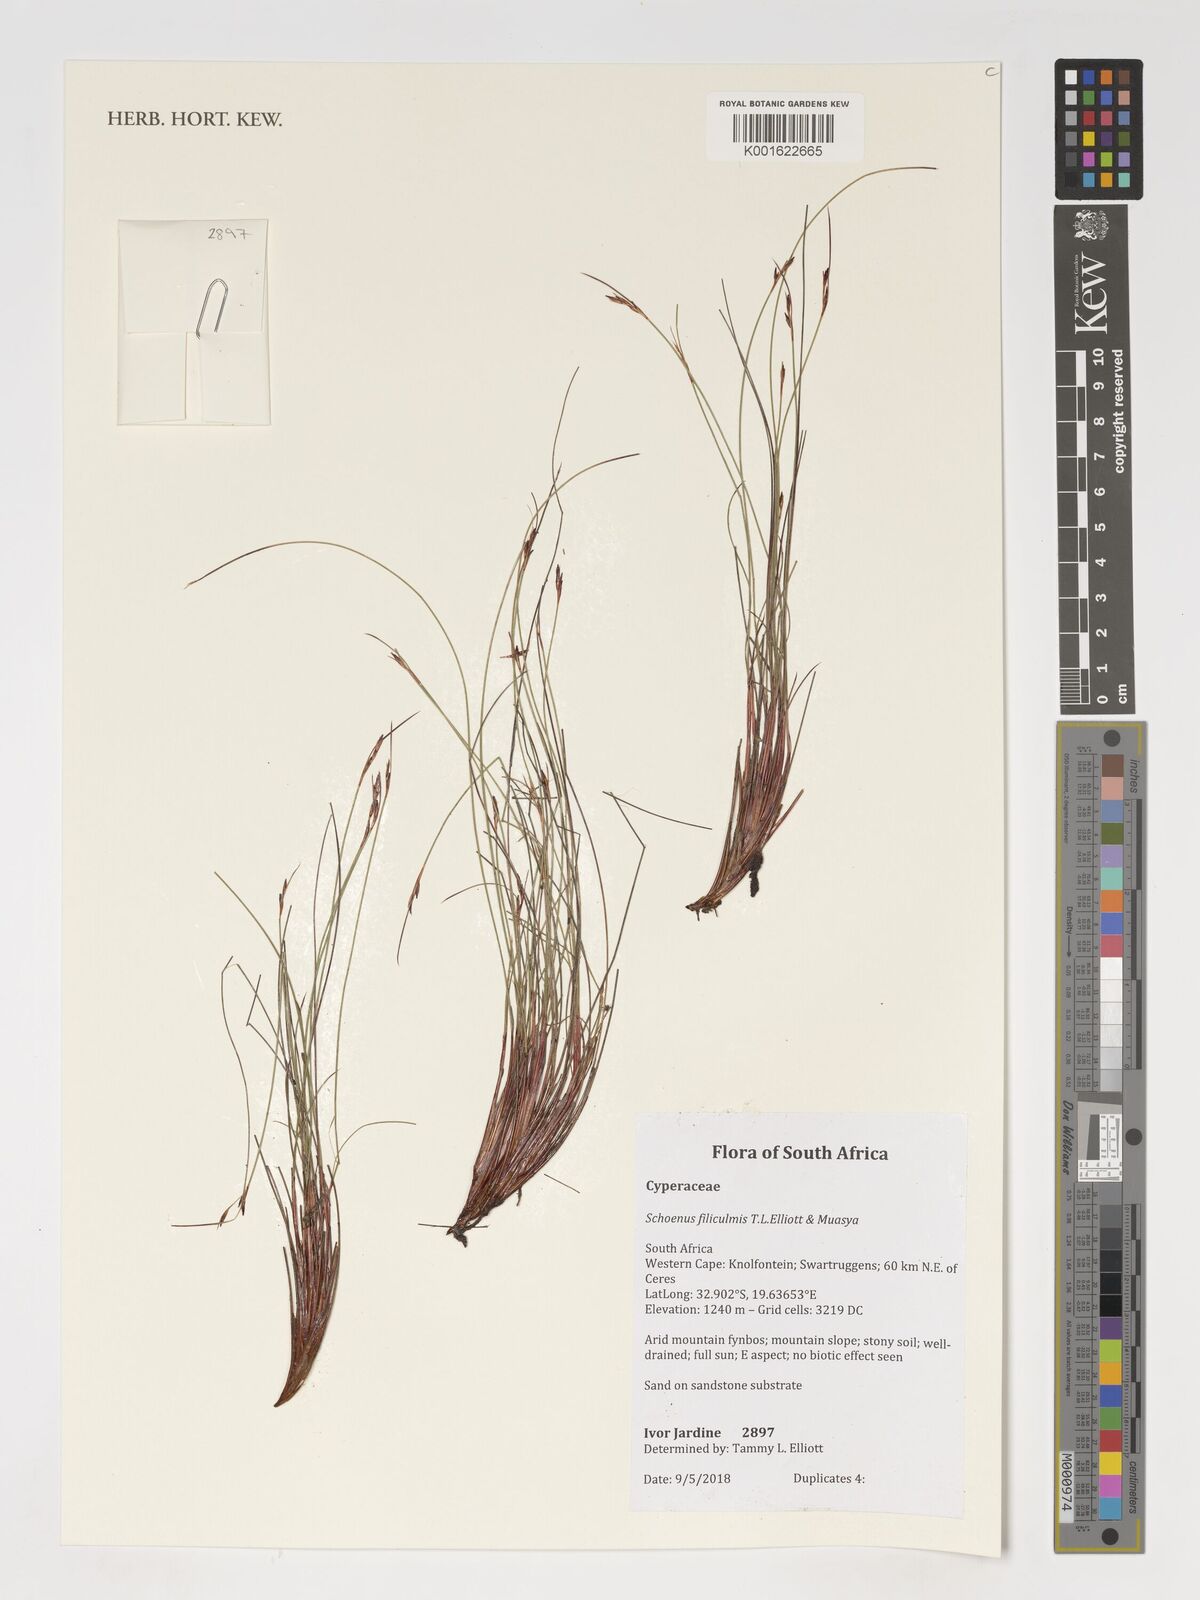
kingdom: Plantae
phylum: Tracheophyta
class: Liliopsida
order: Poales
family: Cyperaceae
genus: Schoenus
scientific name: Schoenus filiculmis
